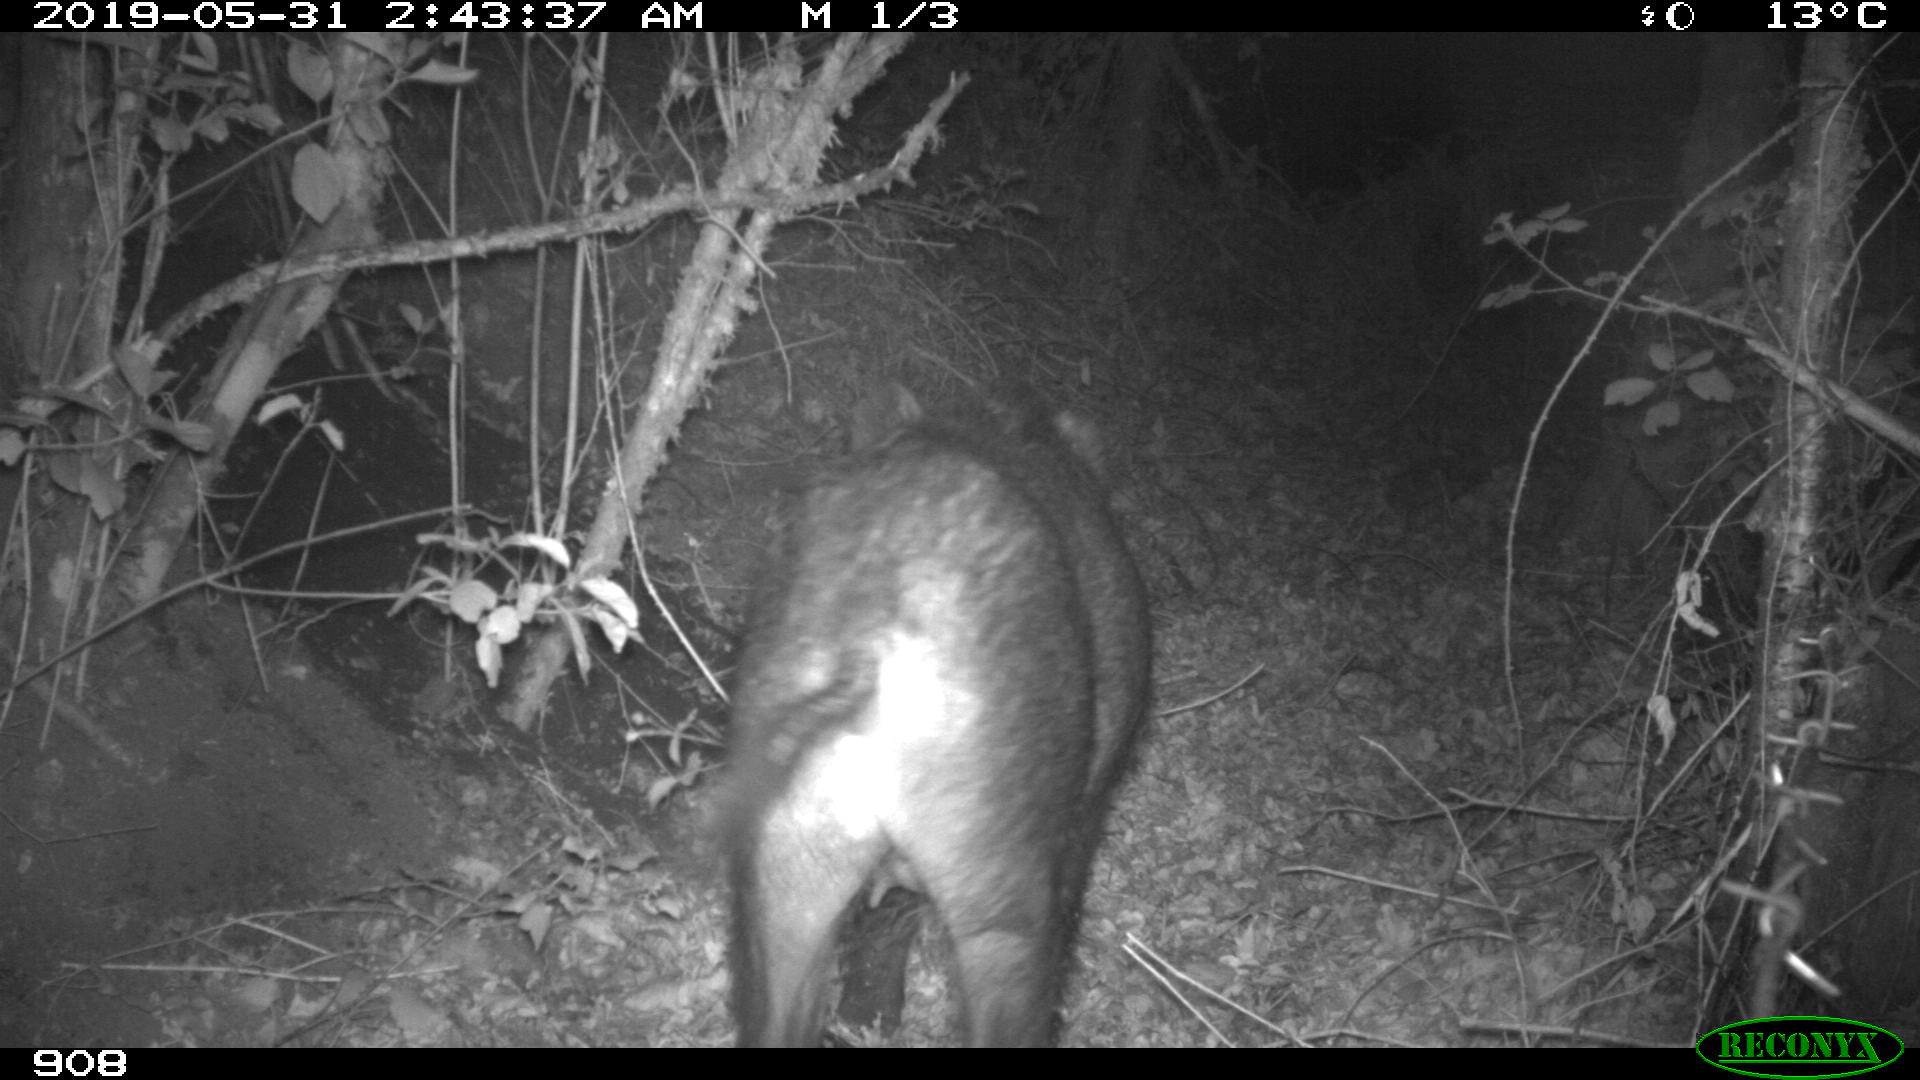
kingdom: Animalia
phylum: Chordata
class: Mammalia
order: Artiodactyla
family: Suidae
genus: Sus
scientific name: Sus scrofa
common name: Wild boar
